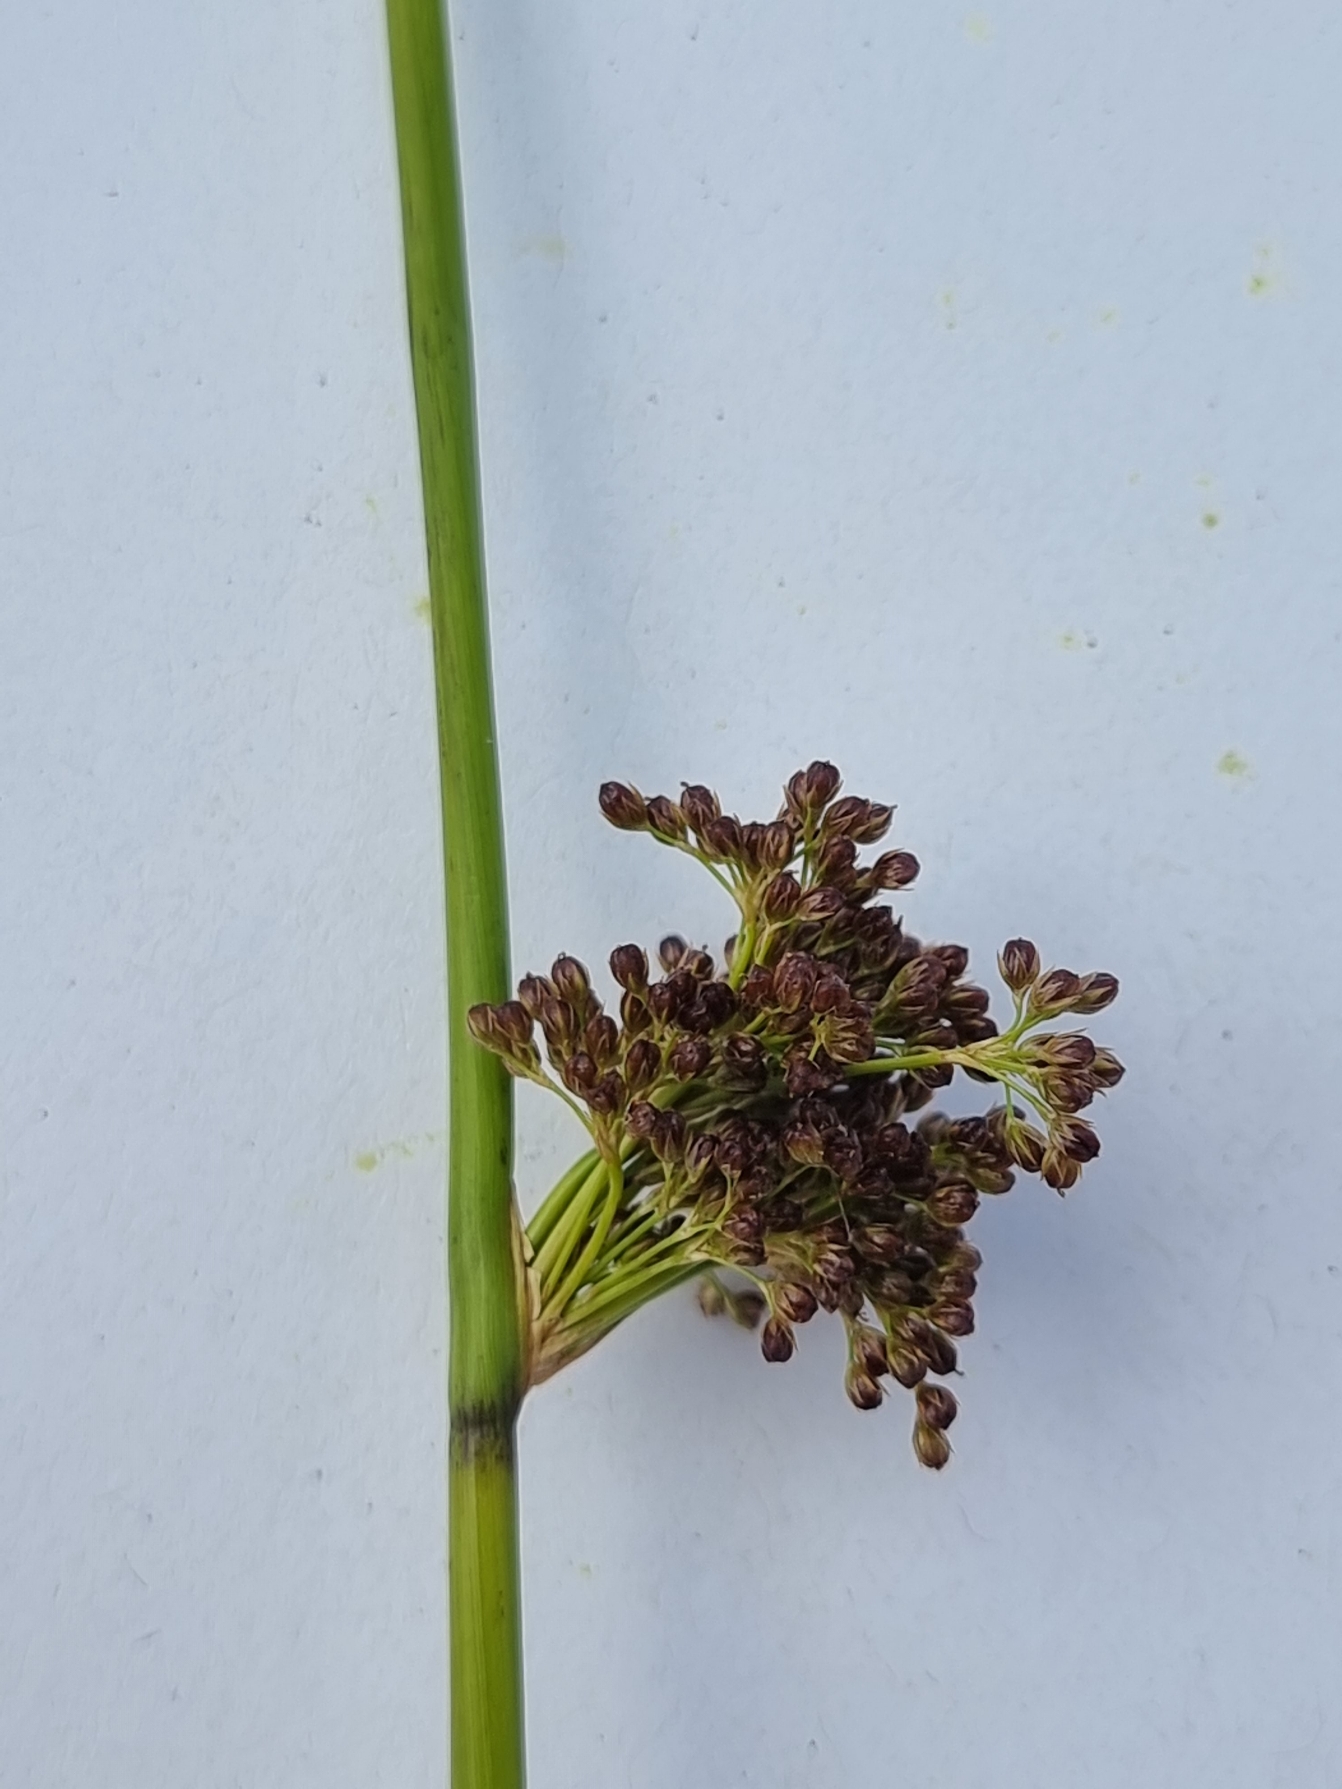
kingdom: Plantae
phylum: Tracheophyta
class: Liliopsida
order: Poales
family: Juncaceae
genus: Juncus
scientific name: Juncus effusus
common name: Lyse-siv
